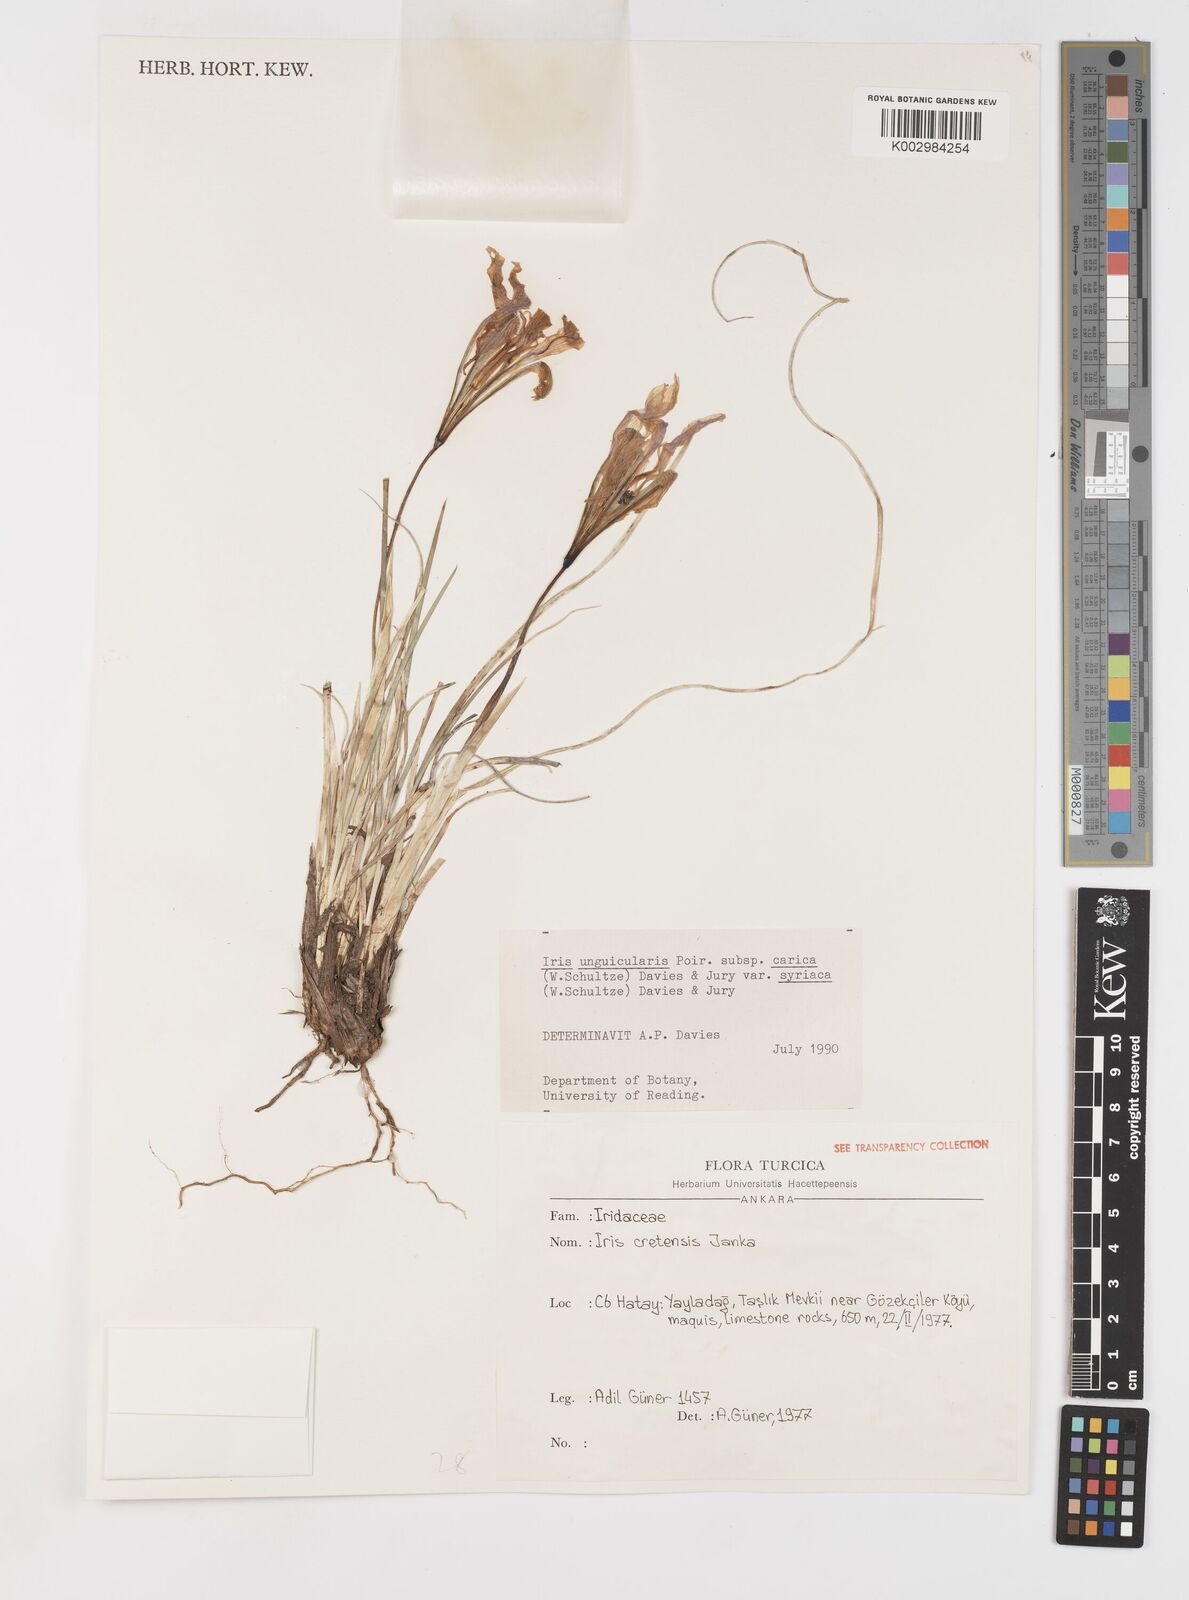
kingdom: Plantae
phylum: Tracheophyta
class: Liliopsida
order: Asparagales
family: Iridaceae
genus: Iris
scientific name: Iris unguicularis
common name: Algerian iris
